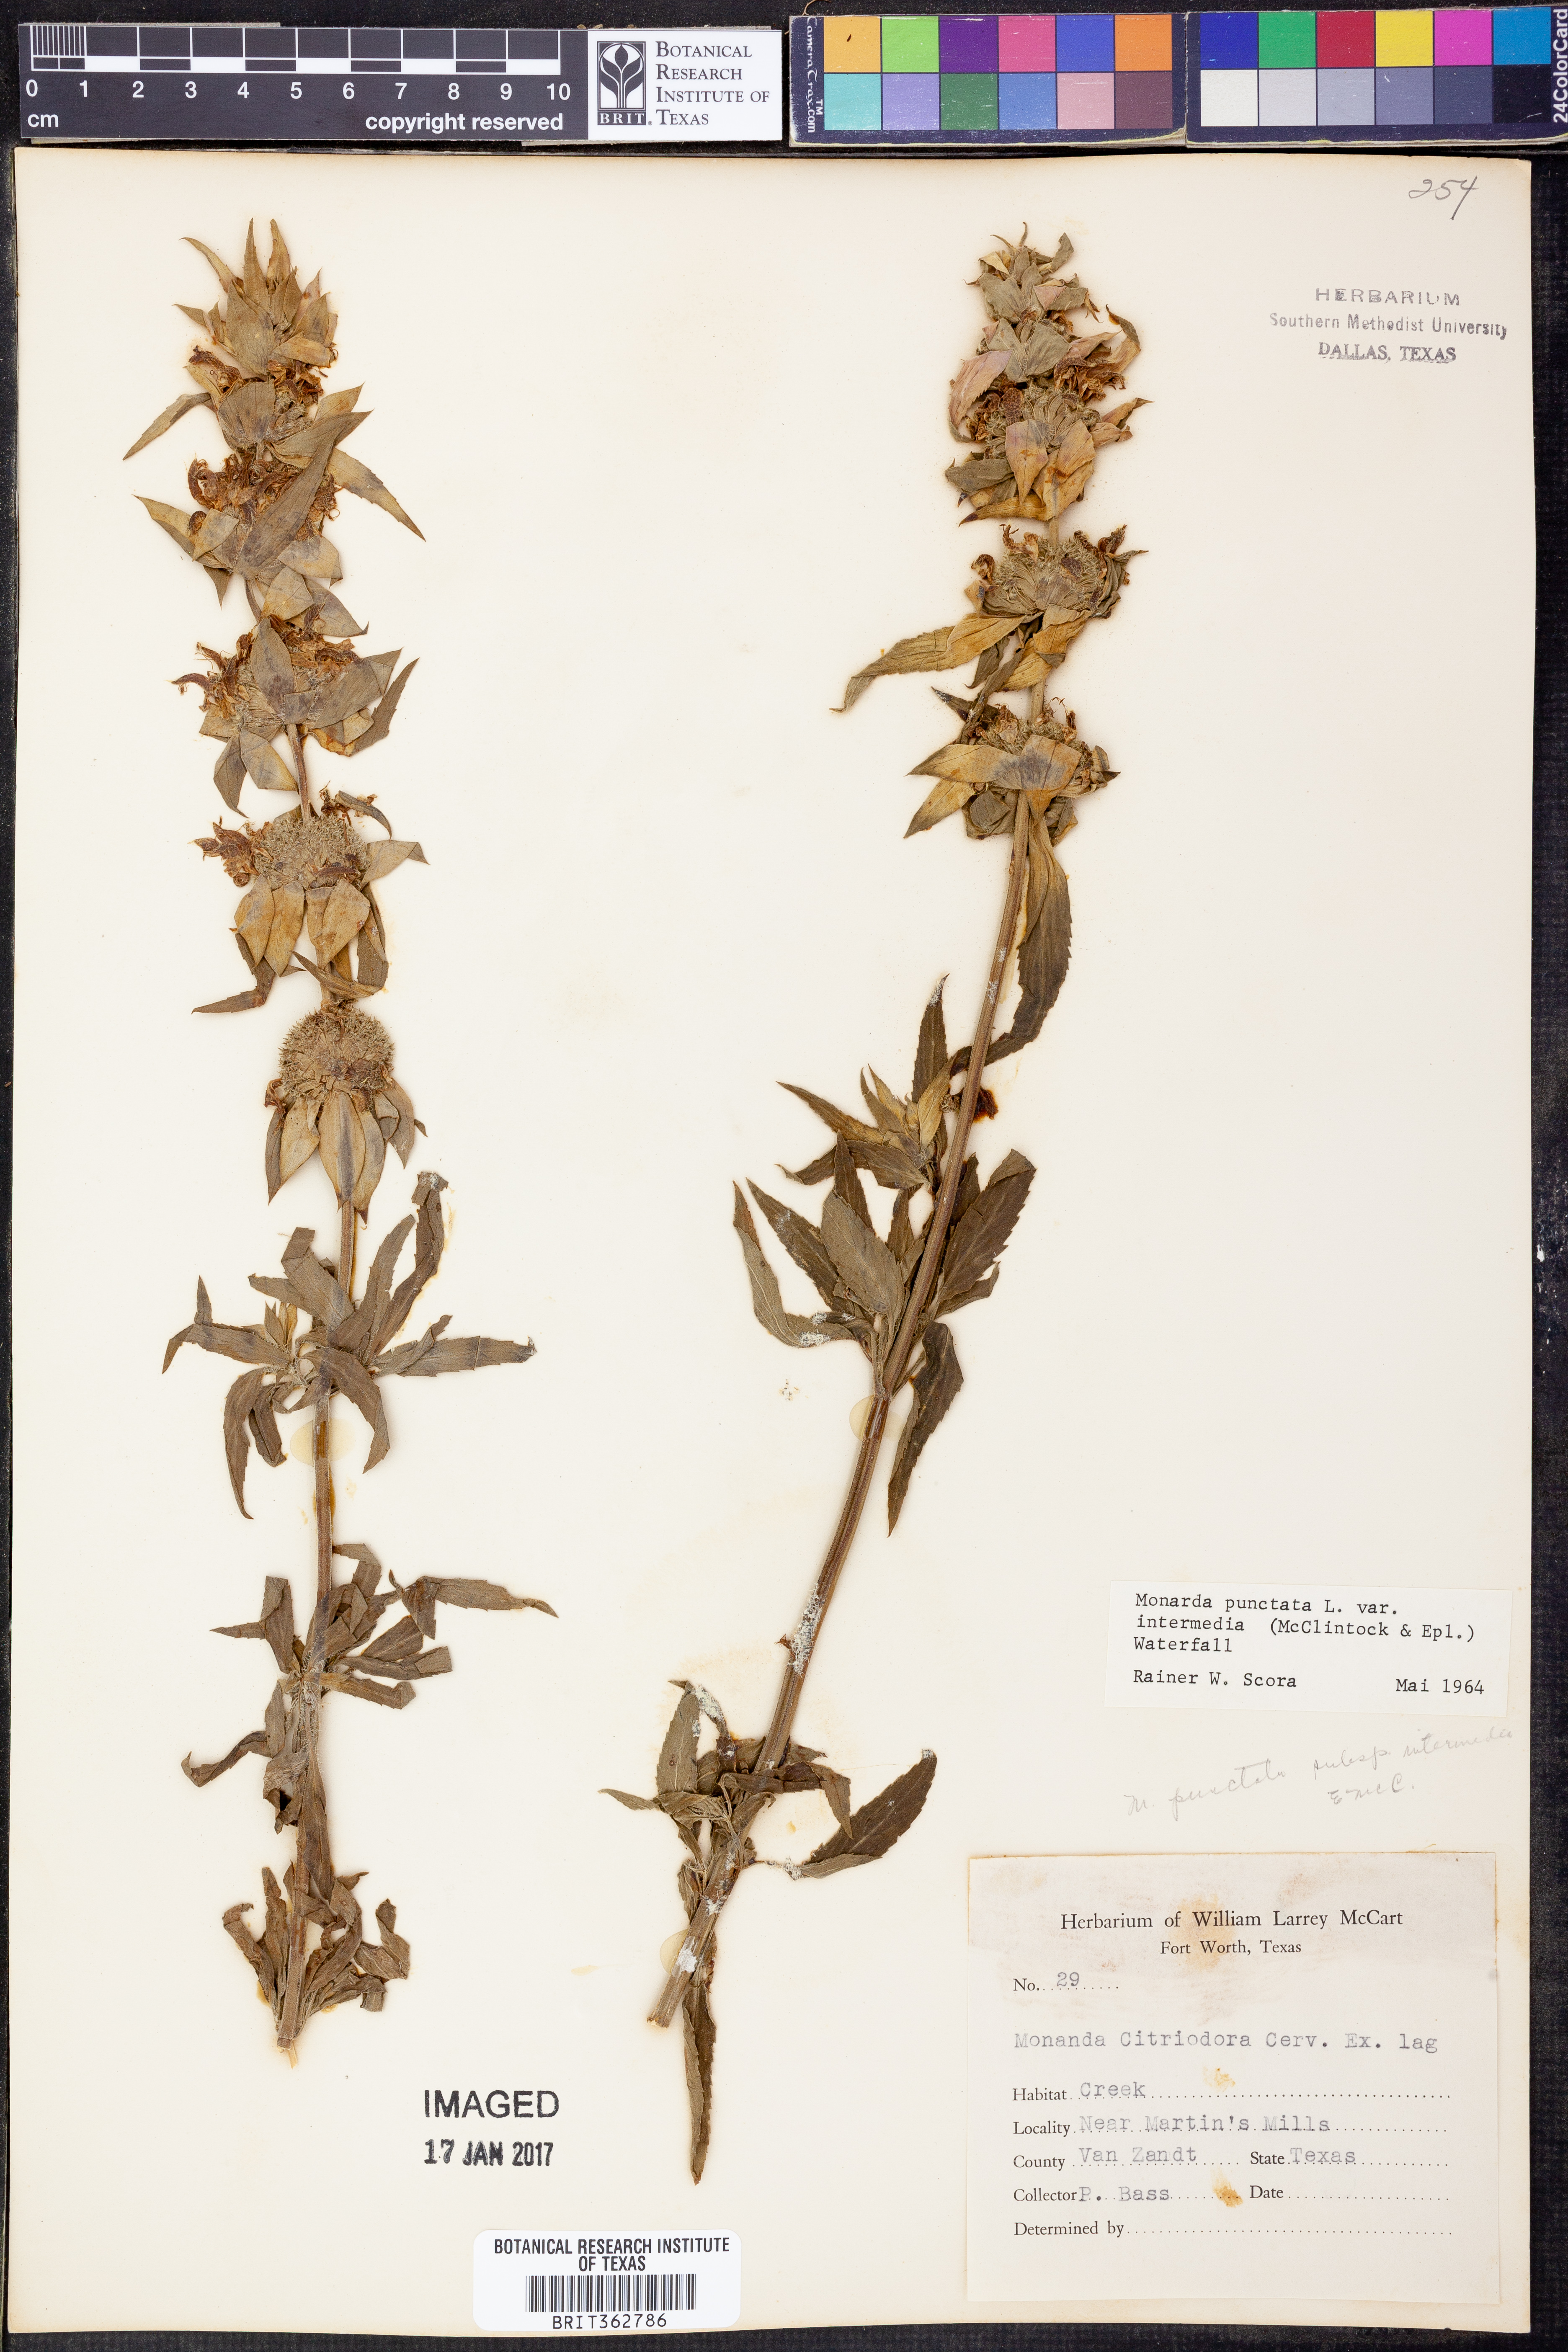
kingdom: Plantae
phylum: Tracheophyta
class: Magnoliopsida
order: Lamiales
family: Lamiaceae
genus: Monarda
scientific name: Monarda punctata
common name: Dotted monarda
